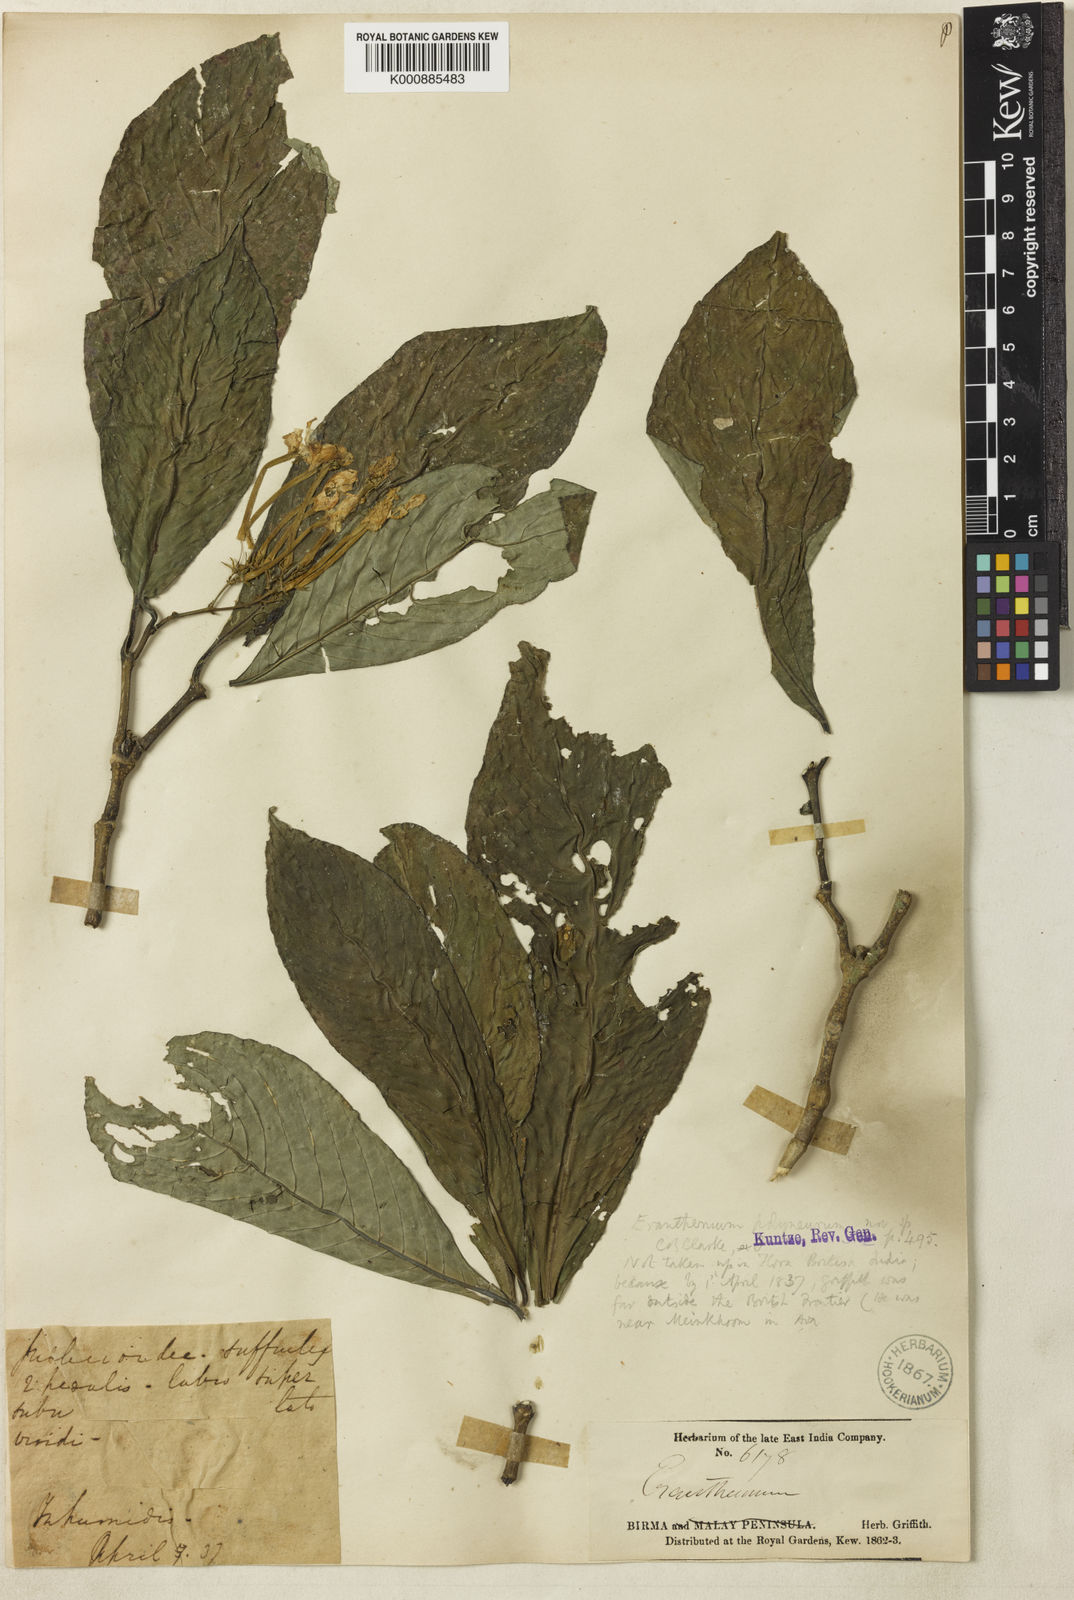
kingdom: Plantae
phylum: Tracheophyta
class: Magnoliopsida
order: Lamiales
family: Acanthaceae
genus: Pseuderanthemum
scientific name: Pseuderanthemum
